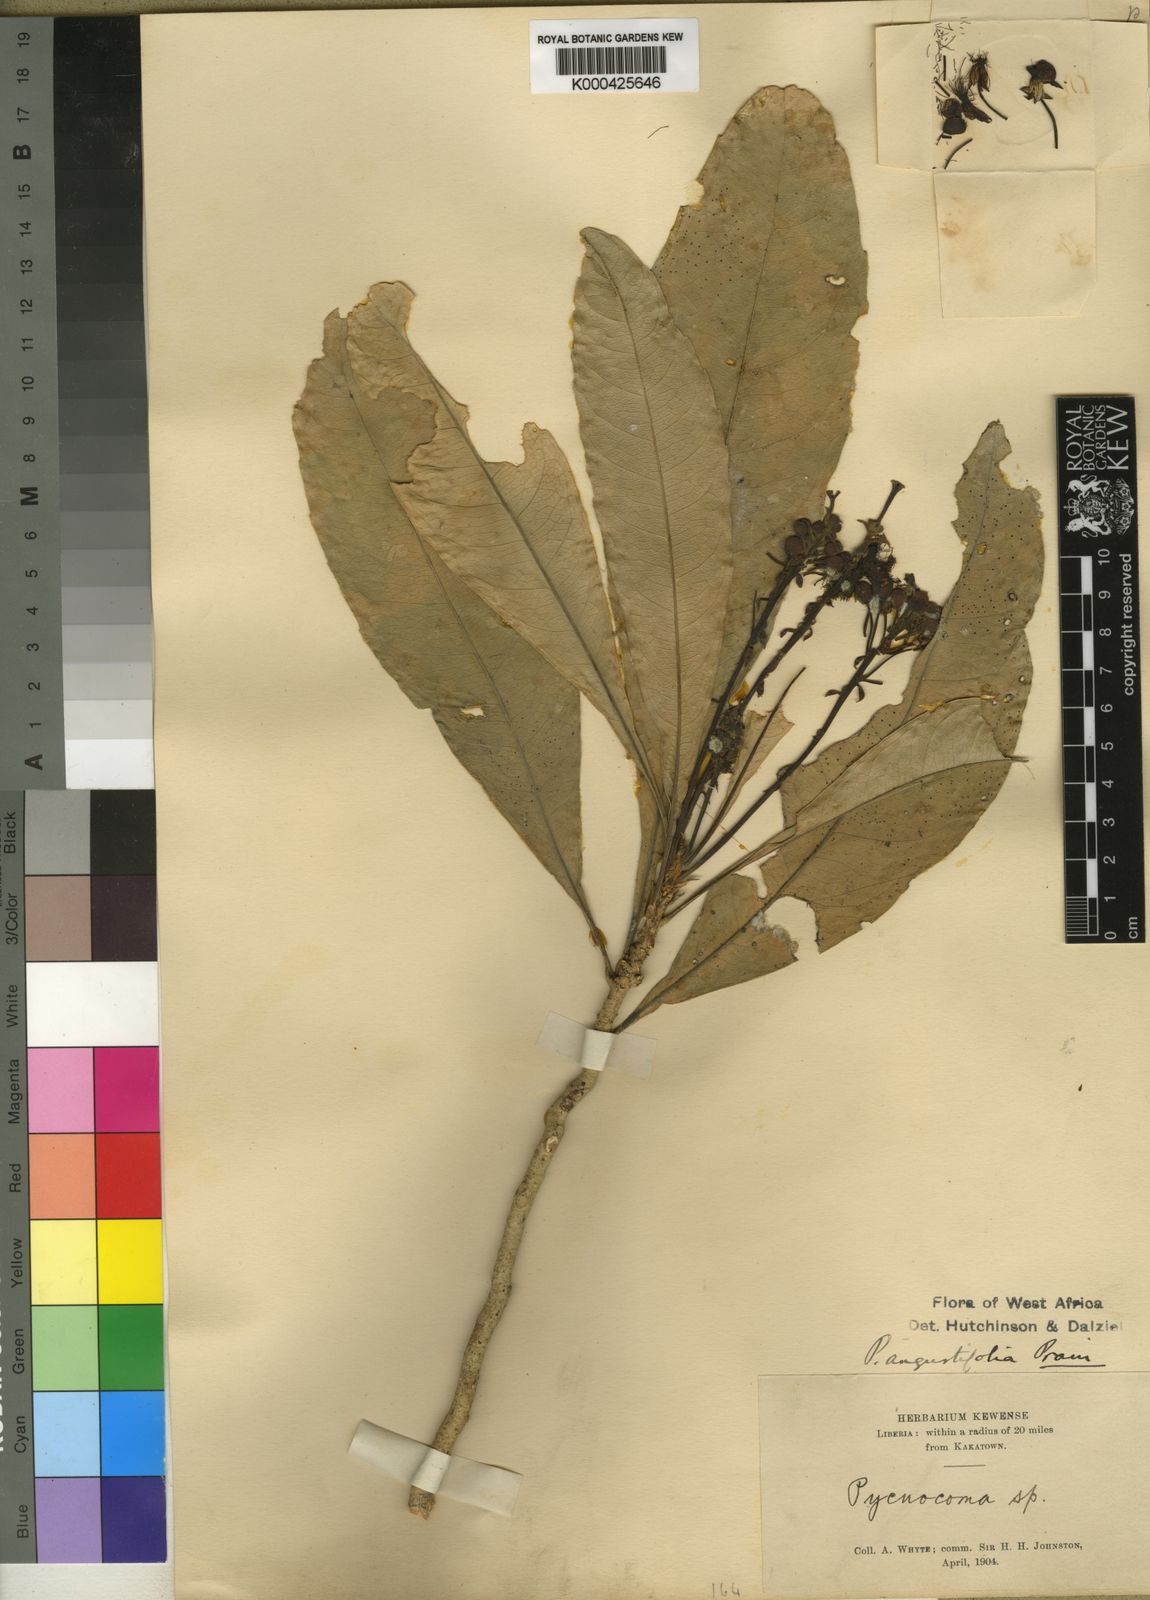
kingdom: Plantae
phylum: Tracheophyta
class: Magnoliopsida
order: Malpighiales
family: Euphorbiaceae
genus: Pycnocoma
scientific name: Pycnocoma angustifolia
